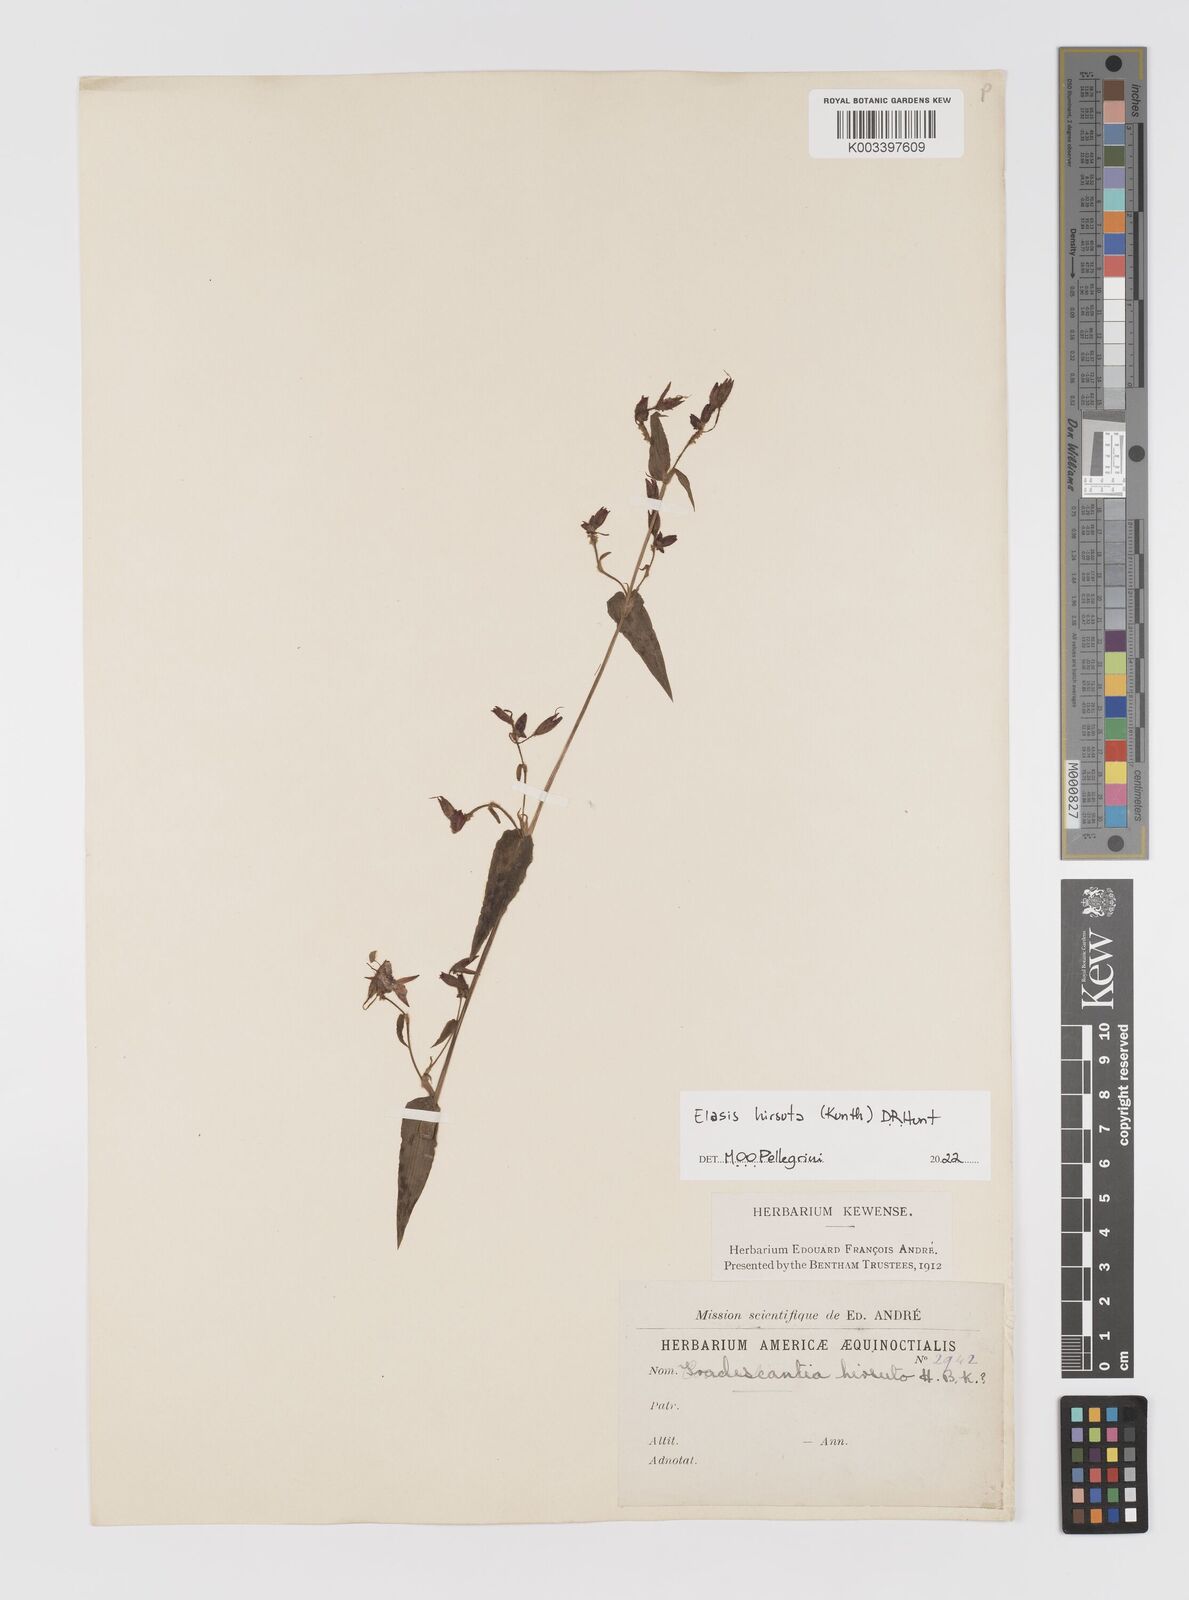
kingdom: Plantae
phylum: Tracheophyta
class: Liliopsida
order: Commelinales
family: Commelinaceae
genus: Elasis
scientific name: Elasis hirsuta
